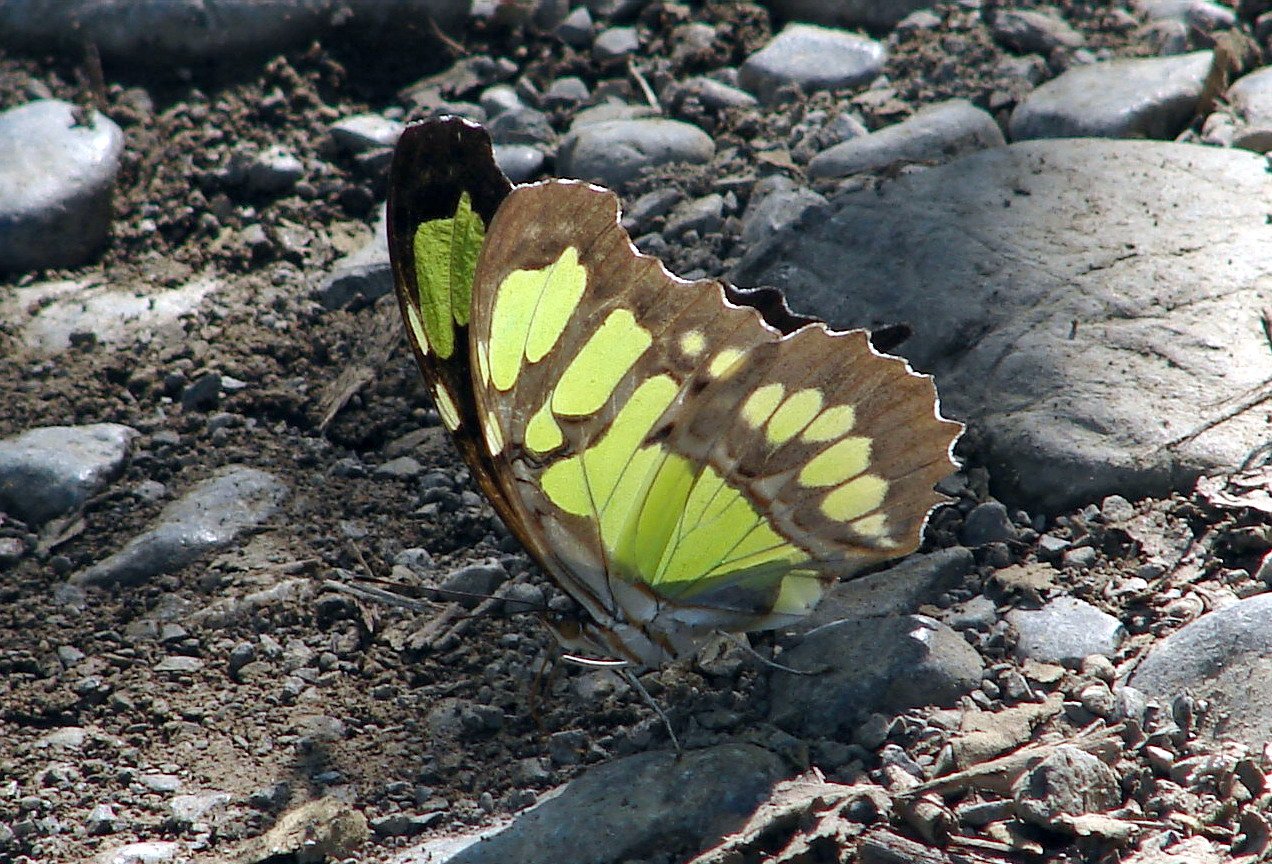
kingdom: Animalia
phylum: Arthropoda
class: Insecta
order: Lepidoptera
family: Nymphalidae
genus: Siproeta
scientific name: Siproeta stelenes
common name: Malachite
